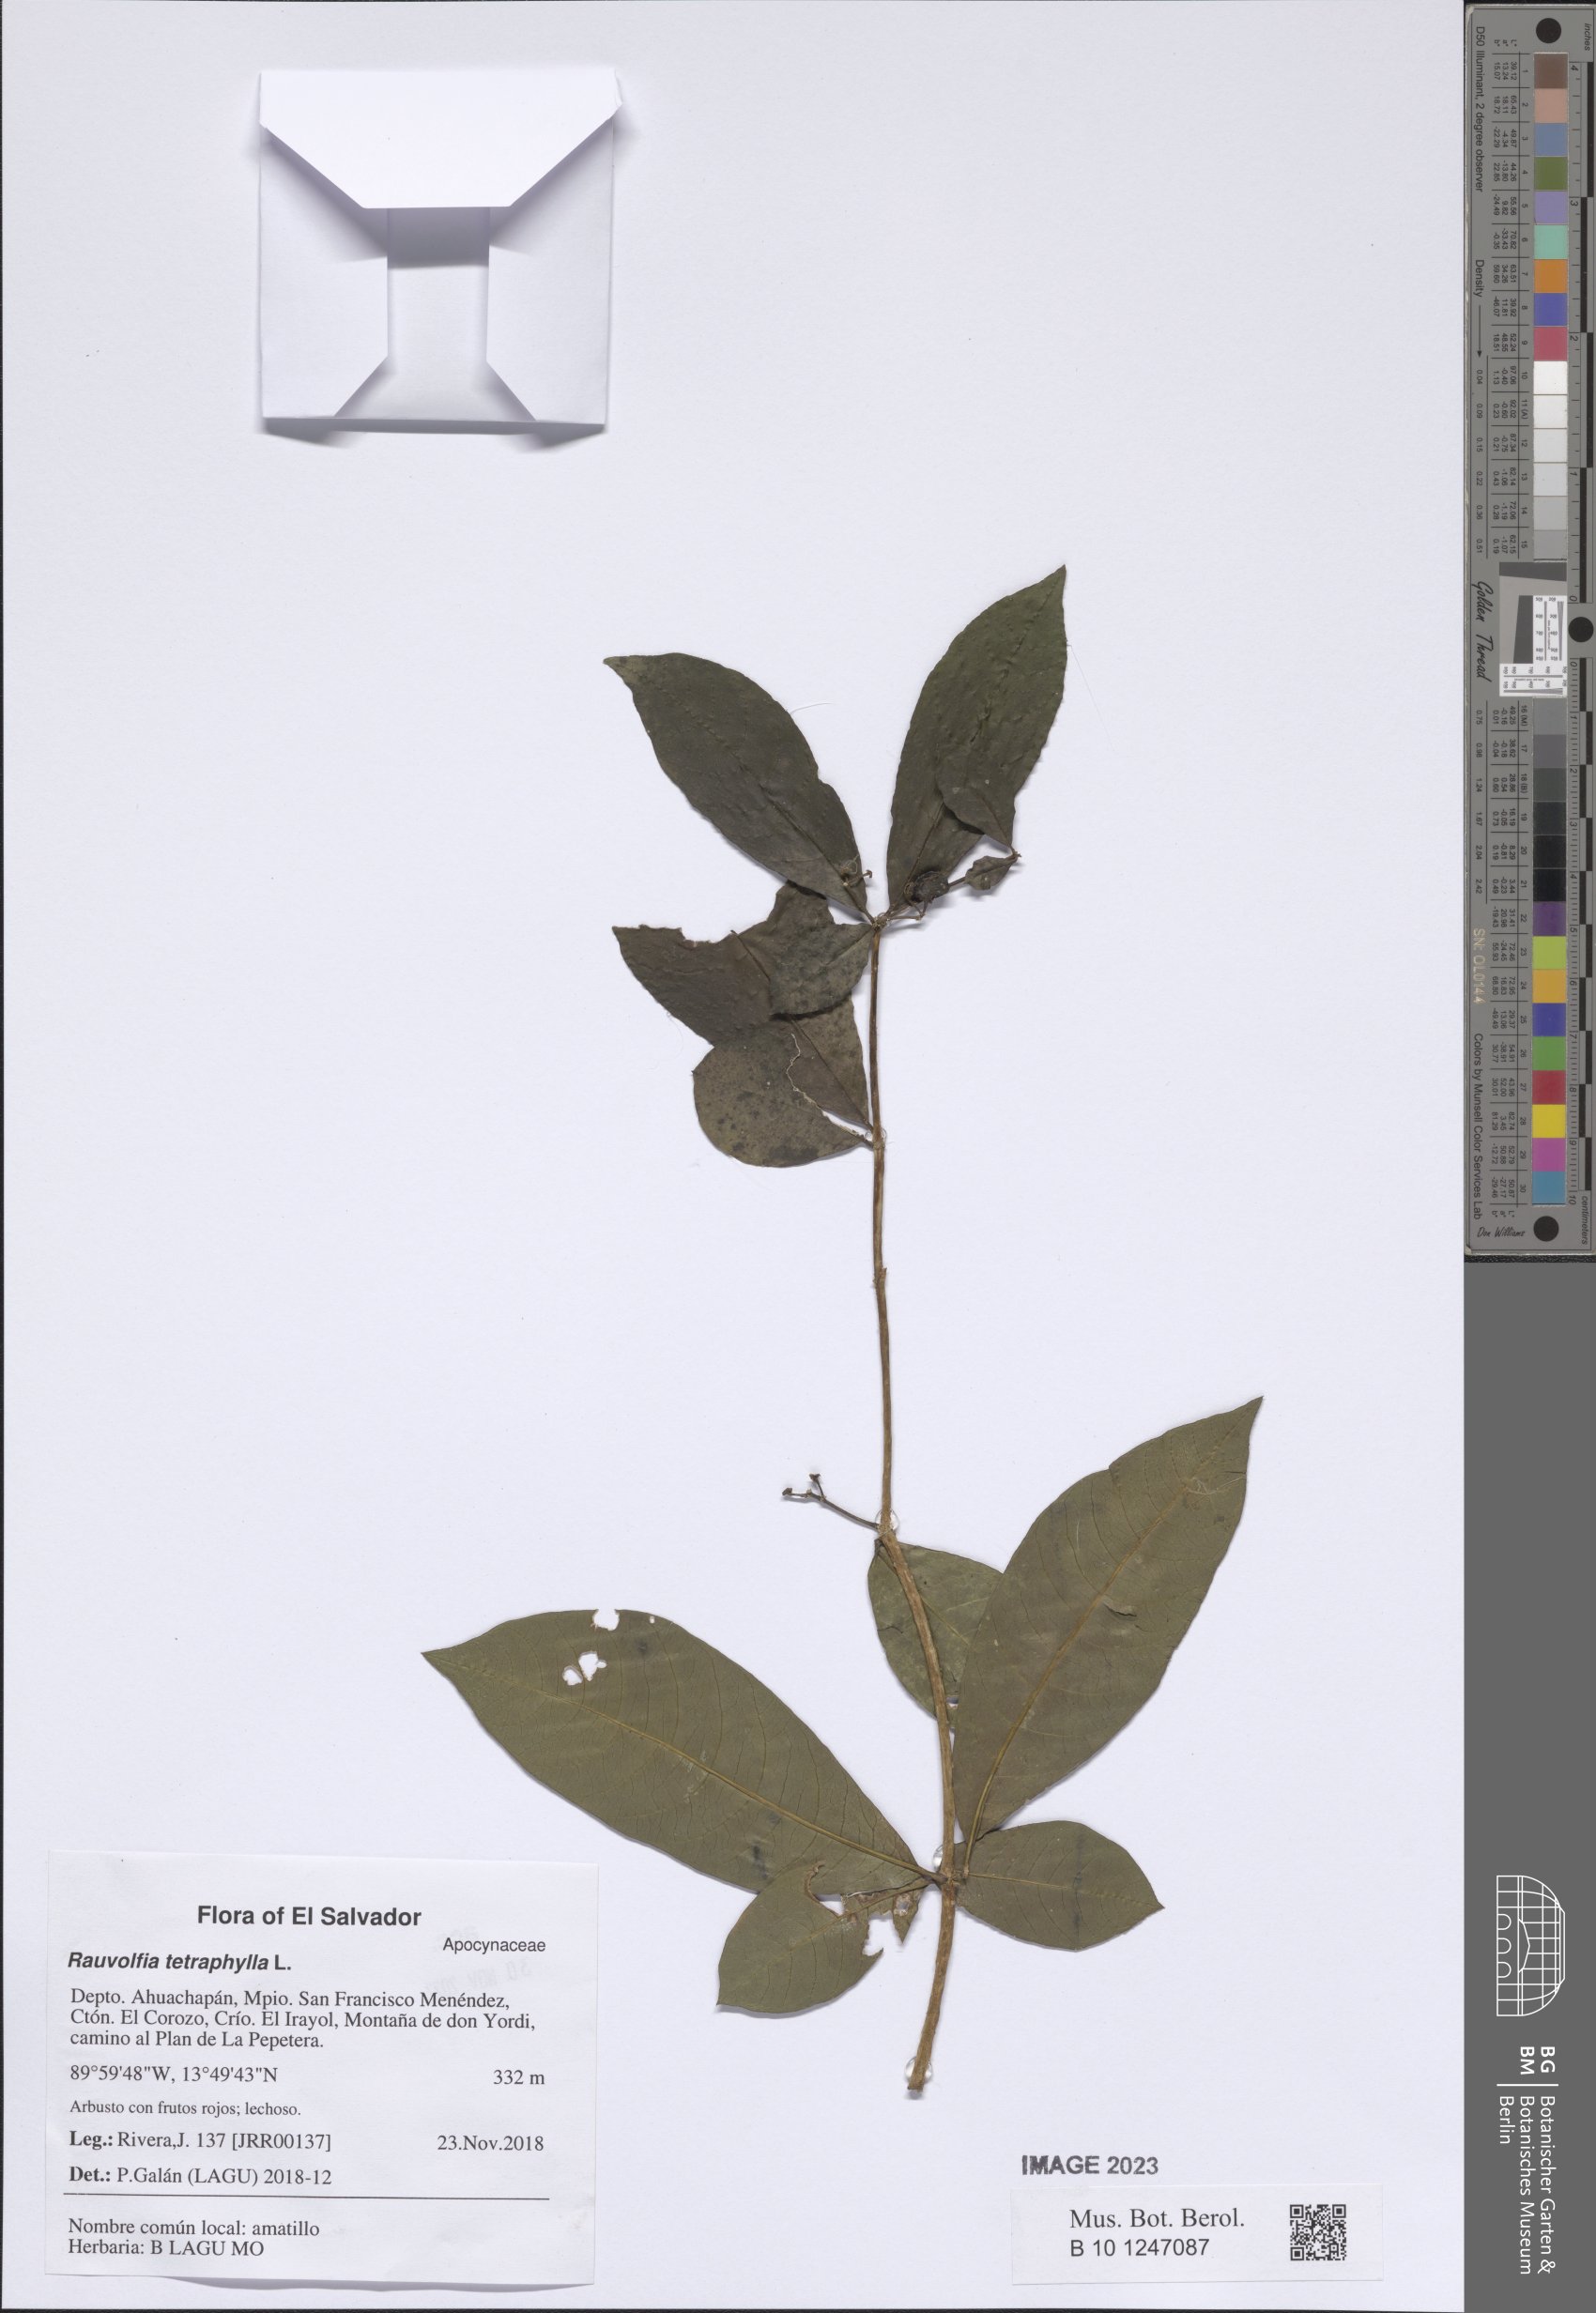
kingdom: Plantae
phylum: Tracheophyta
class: Magnoliopsida
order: Gentianales
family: Apocynaceae
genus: Rauvolfia
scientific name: Rauvolfia tetraphylla
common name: Four-leaf devil-pepper
